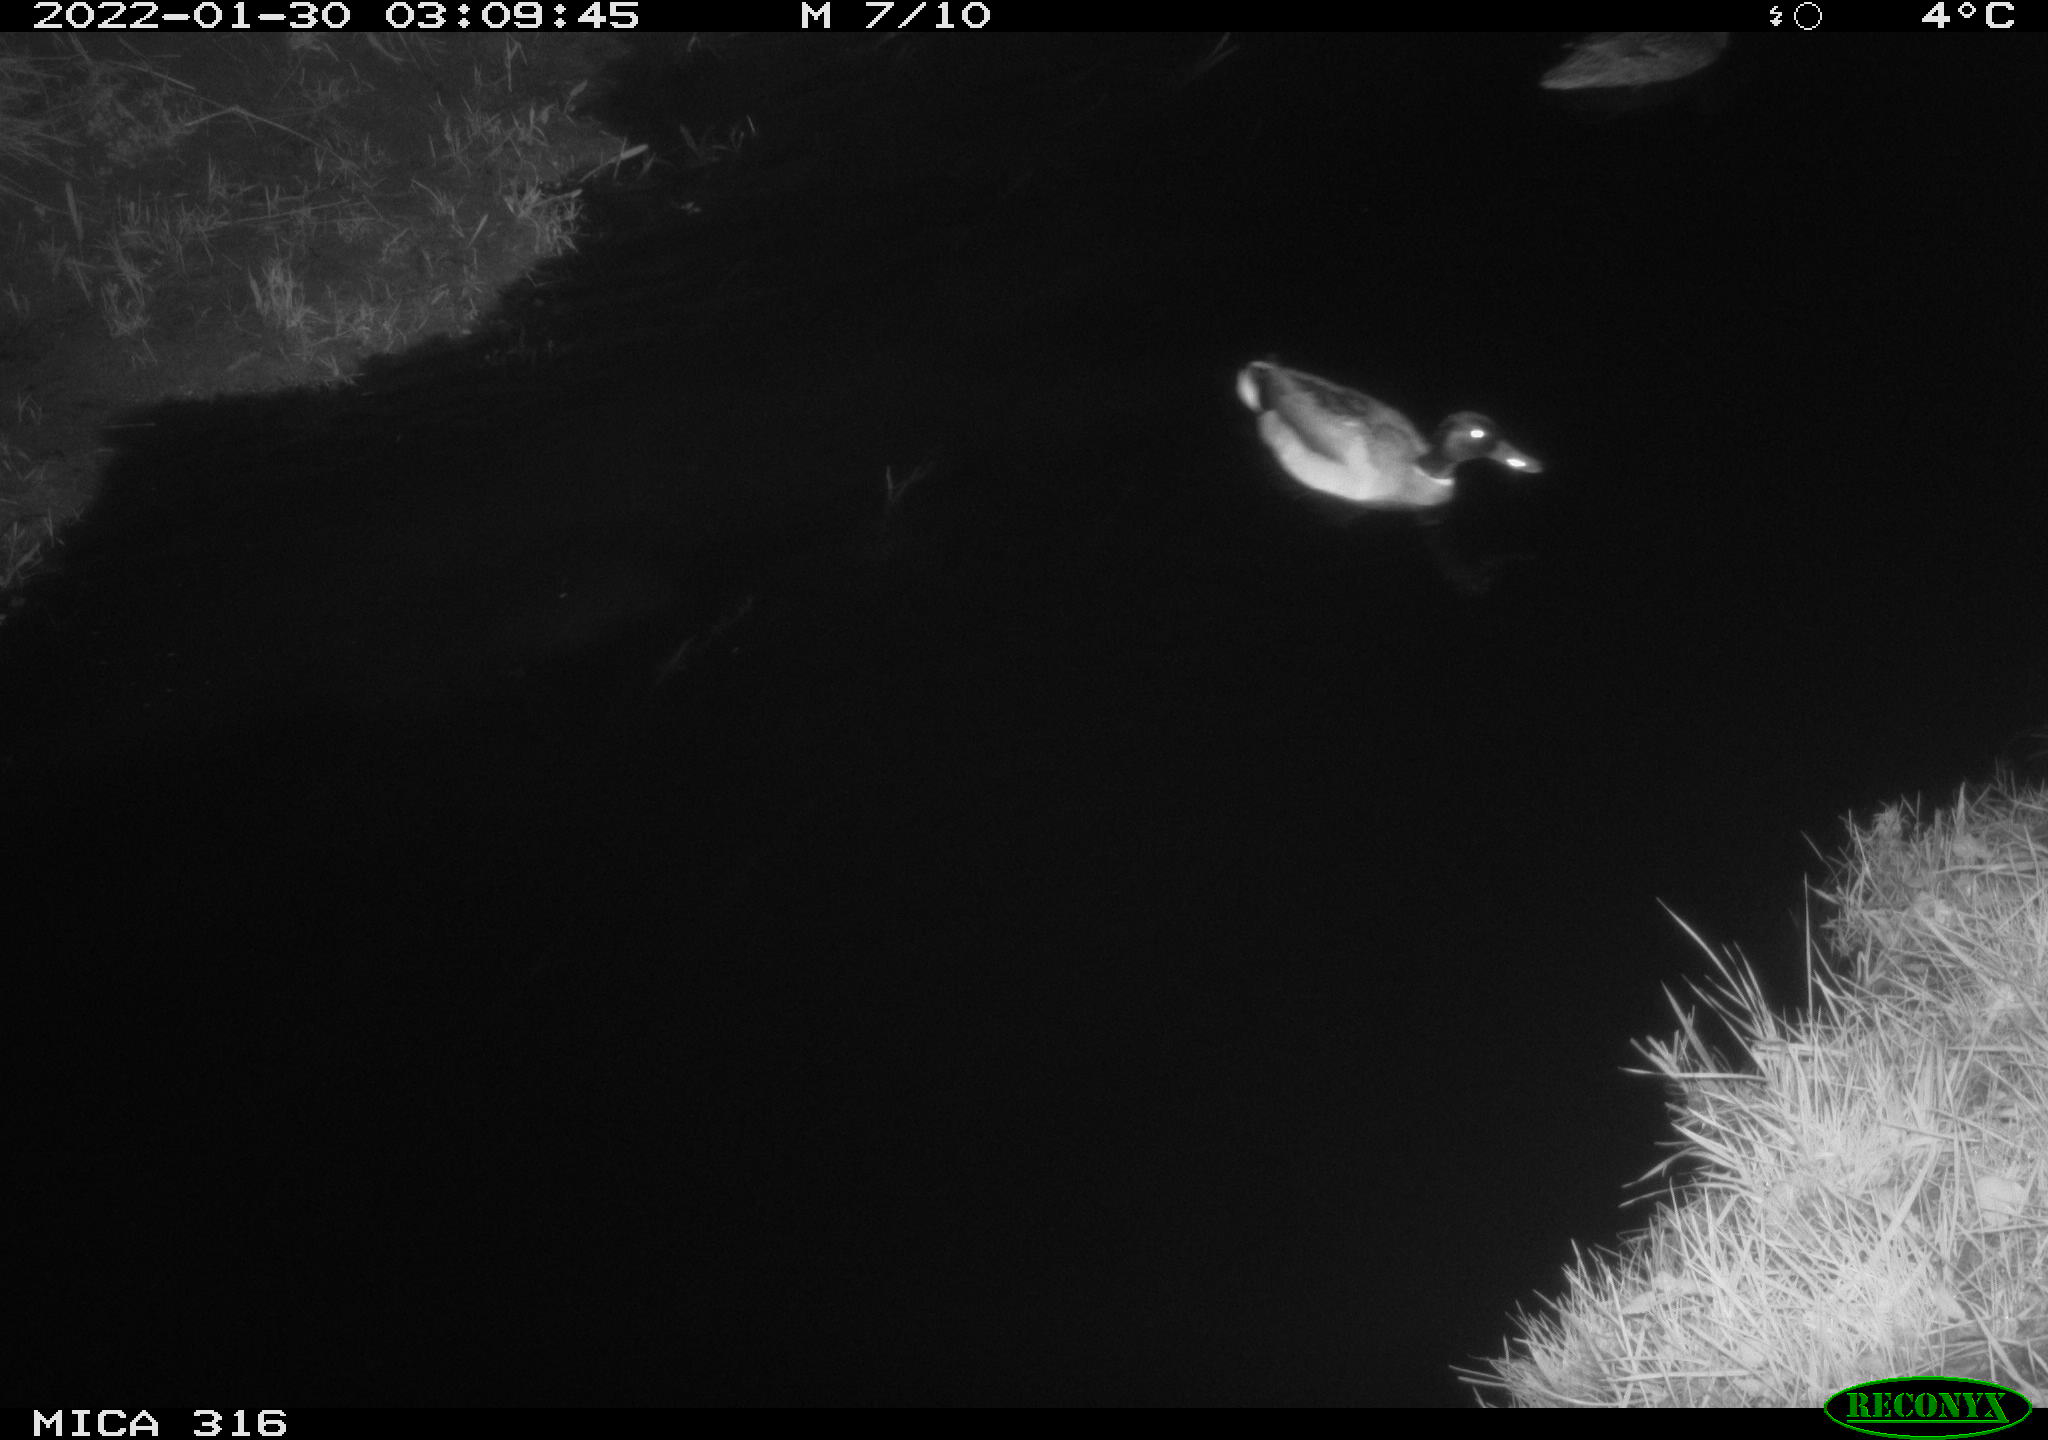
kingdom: Animalia
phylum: Chordata
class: Aves
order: Anseriformes
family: Anatidae
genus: Anas
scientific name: Anas platyrhynchos
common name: Mallard
